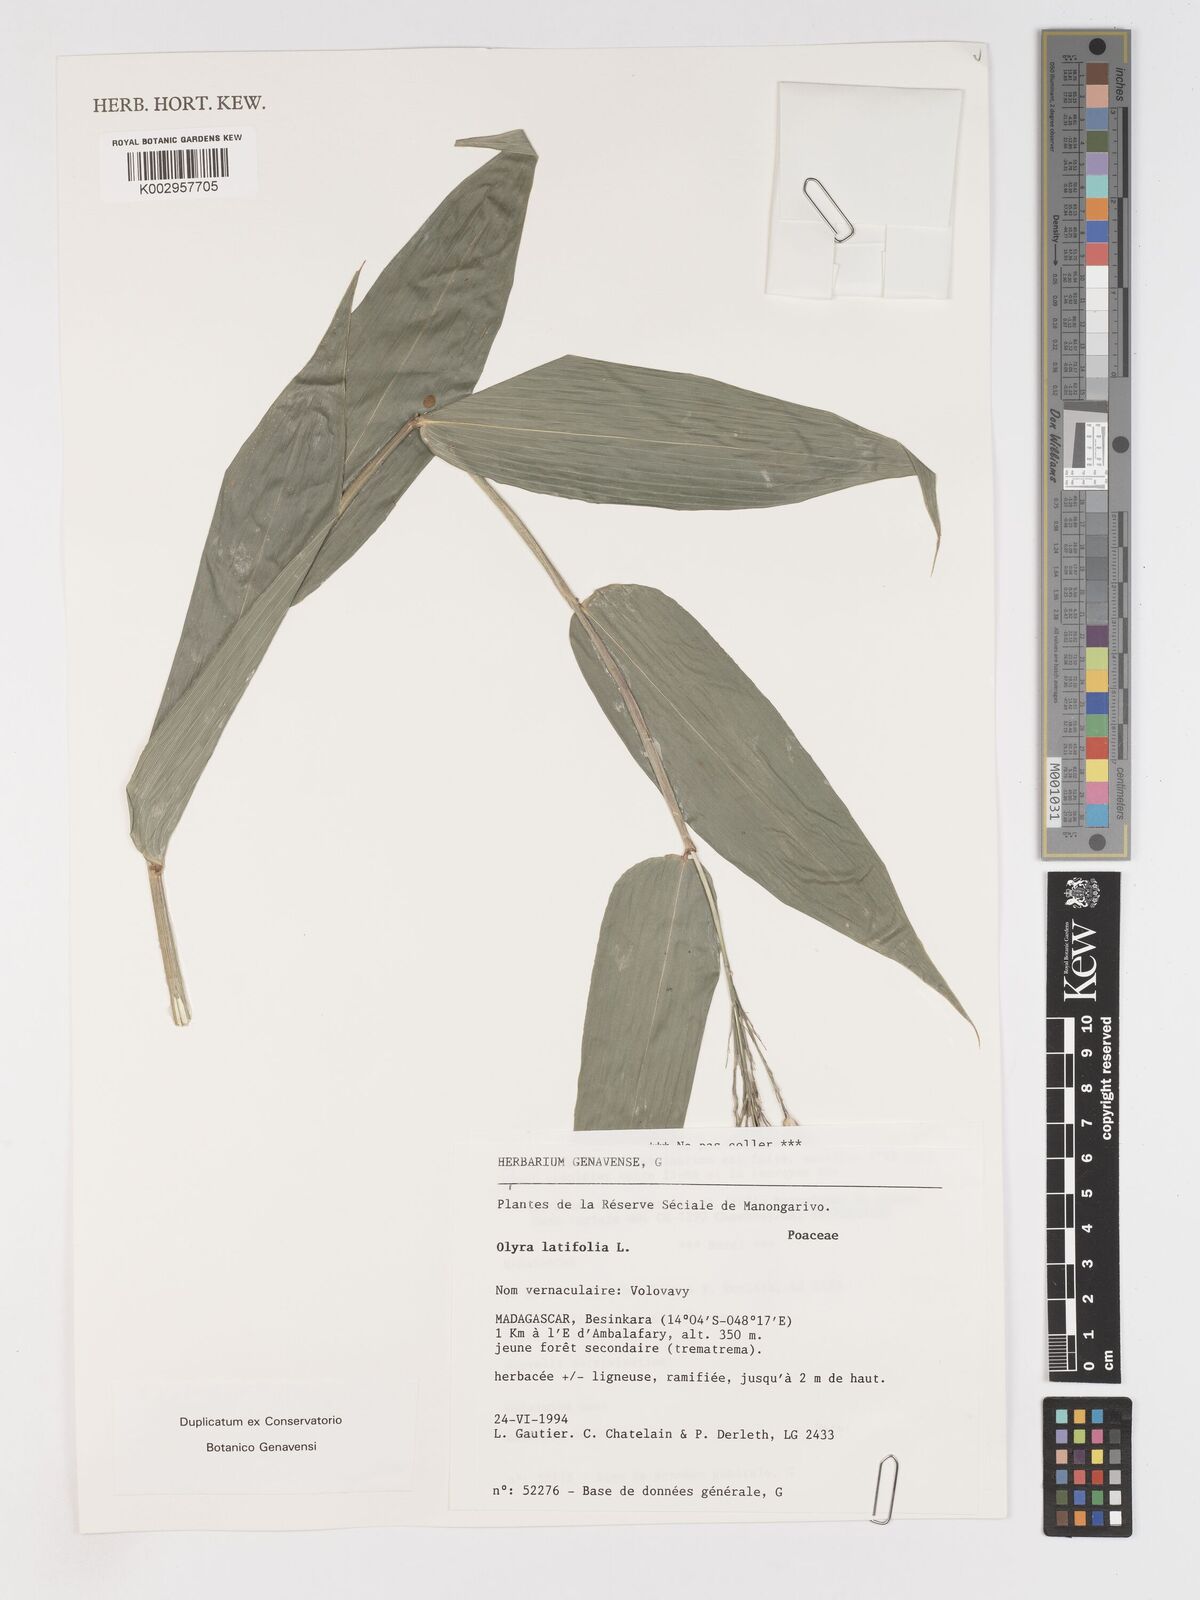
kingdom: Plantae
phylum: Tracheophyta
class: Liliopsida
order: Poales
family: Poaceae
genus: Olyra
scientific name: Olyra latifolia
